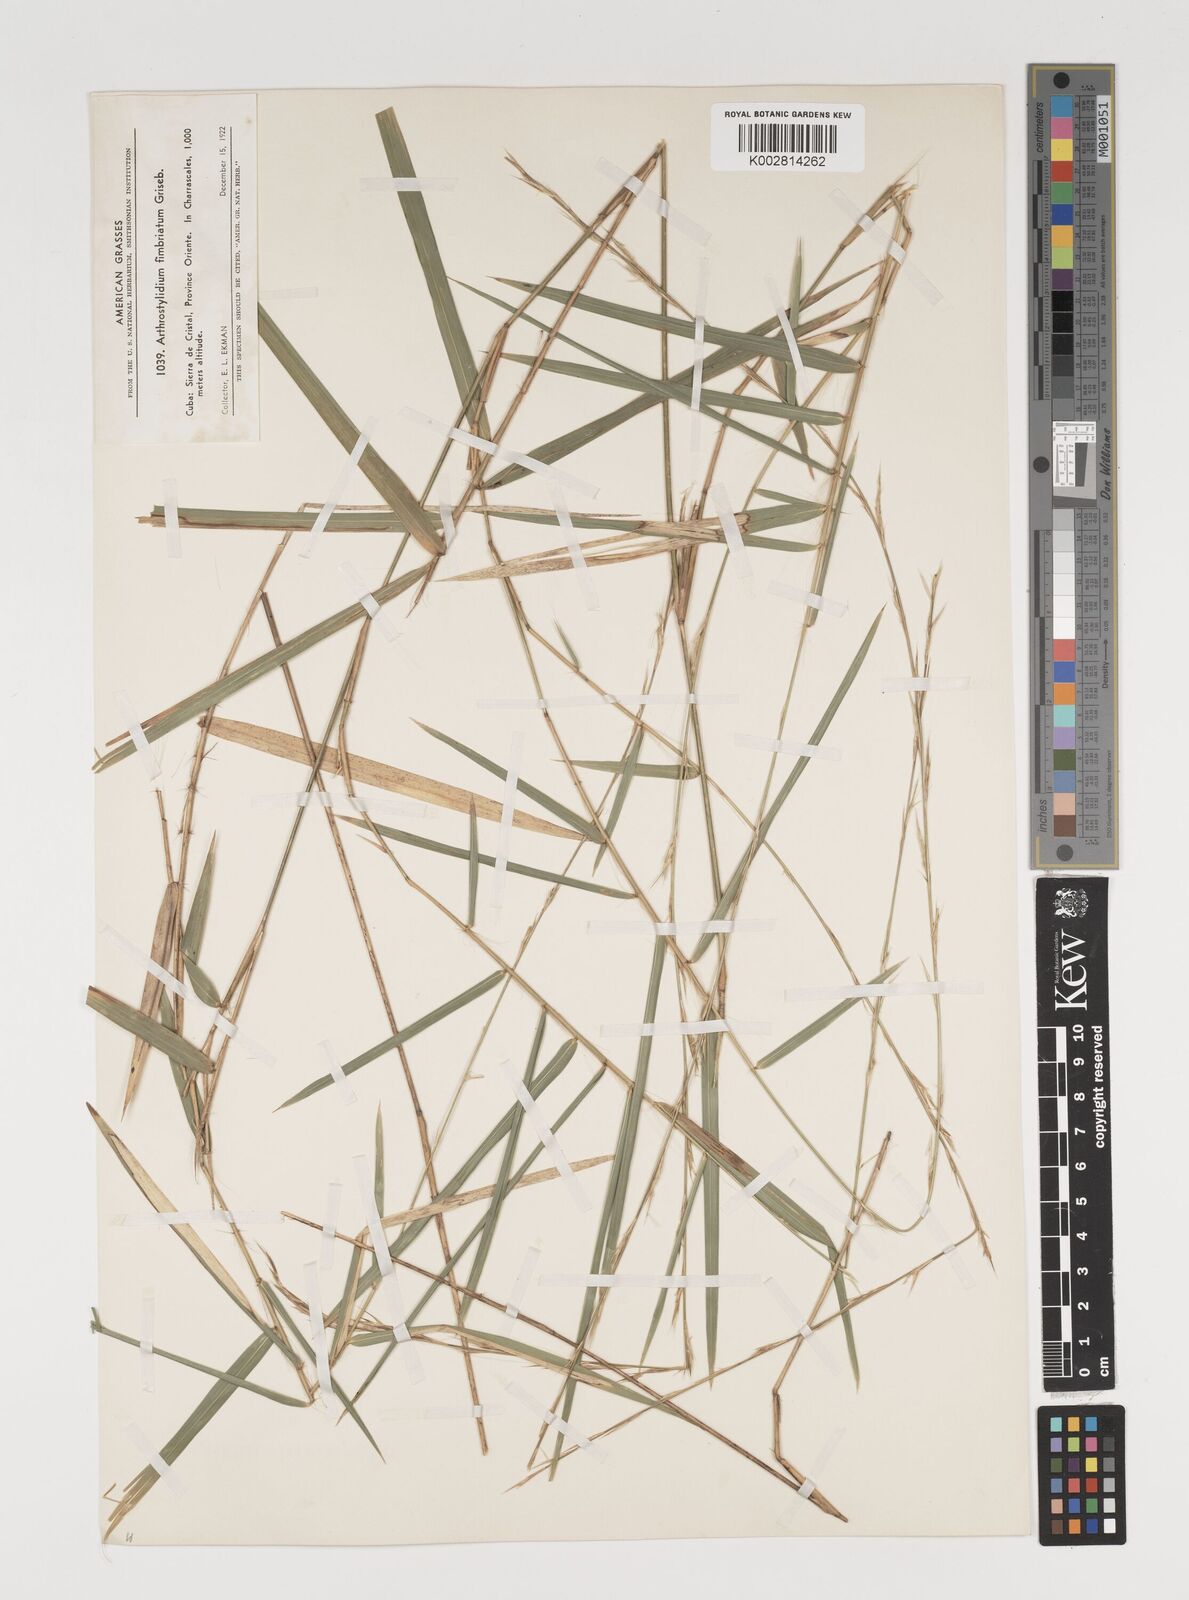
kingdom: Plantae
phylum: Tracheophyta
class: Liliopsida
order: Poales
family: Poaceae
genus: Arthrostylidium
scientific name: Arthrostylidium fimbriatum
